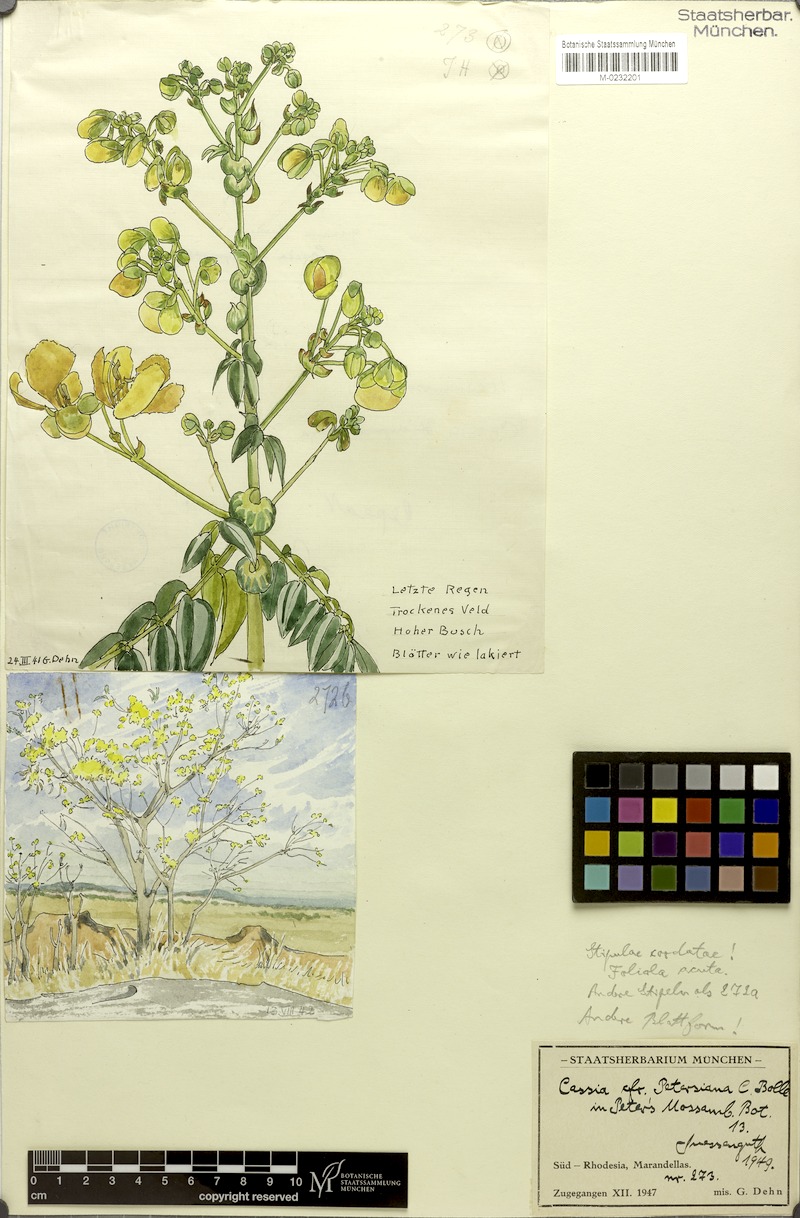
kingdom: Plantae
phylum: Tracheophyta
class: Magnoliopsida
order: Fabales
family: Fabaceae
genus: Senna
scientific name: Senna petersiana
